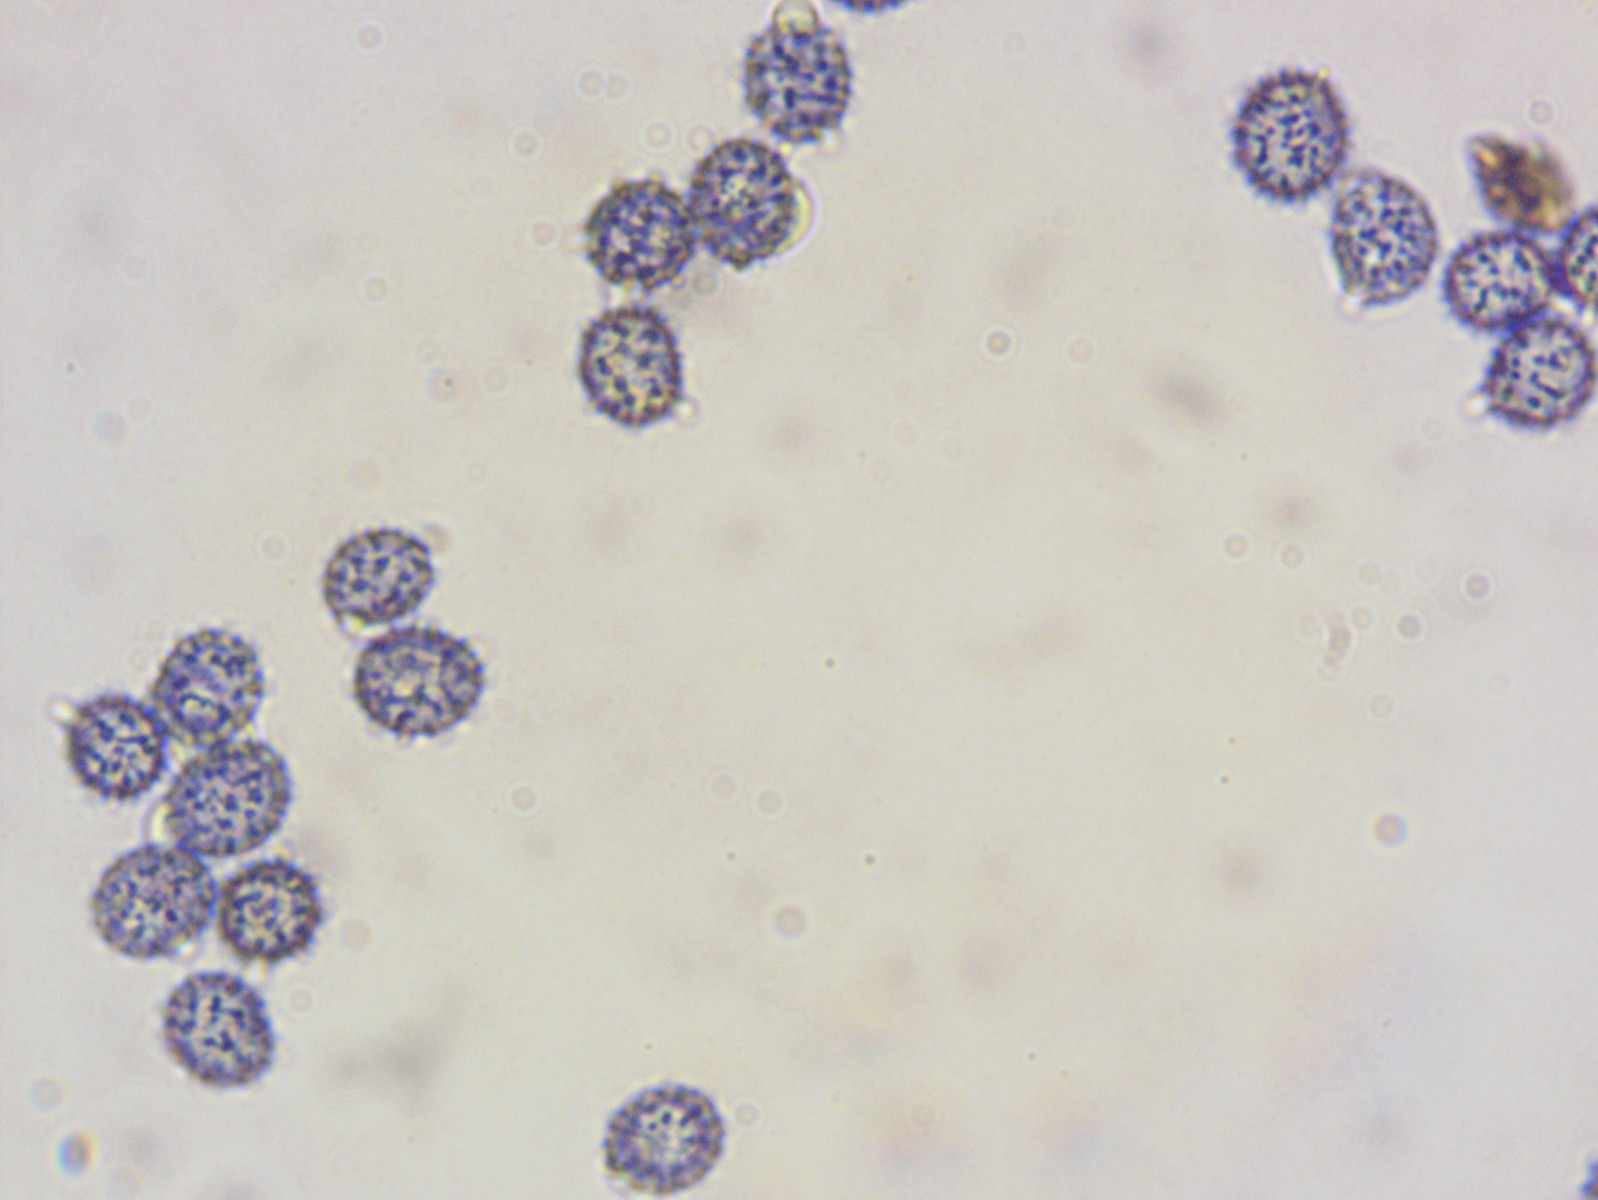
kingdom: Fungi
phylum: Basidiomycota
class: Agaricomycetes
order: Russulales
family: Russulaceae
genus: Russula
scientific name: Russula silvestris
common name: mellemstor gift-skørhat
